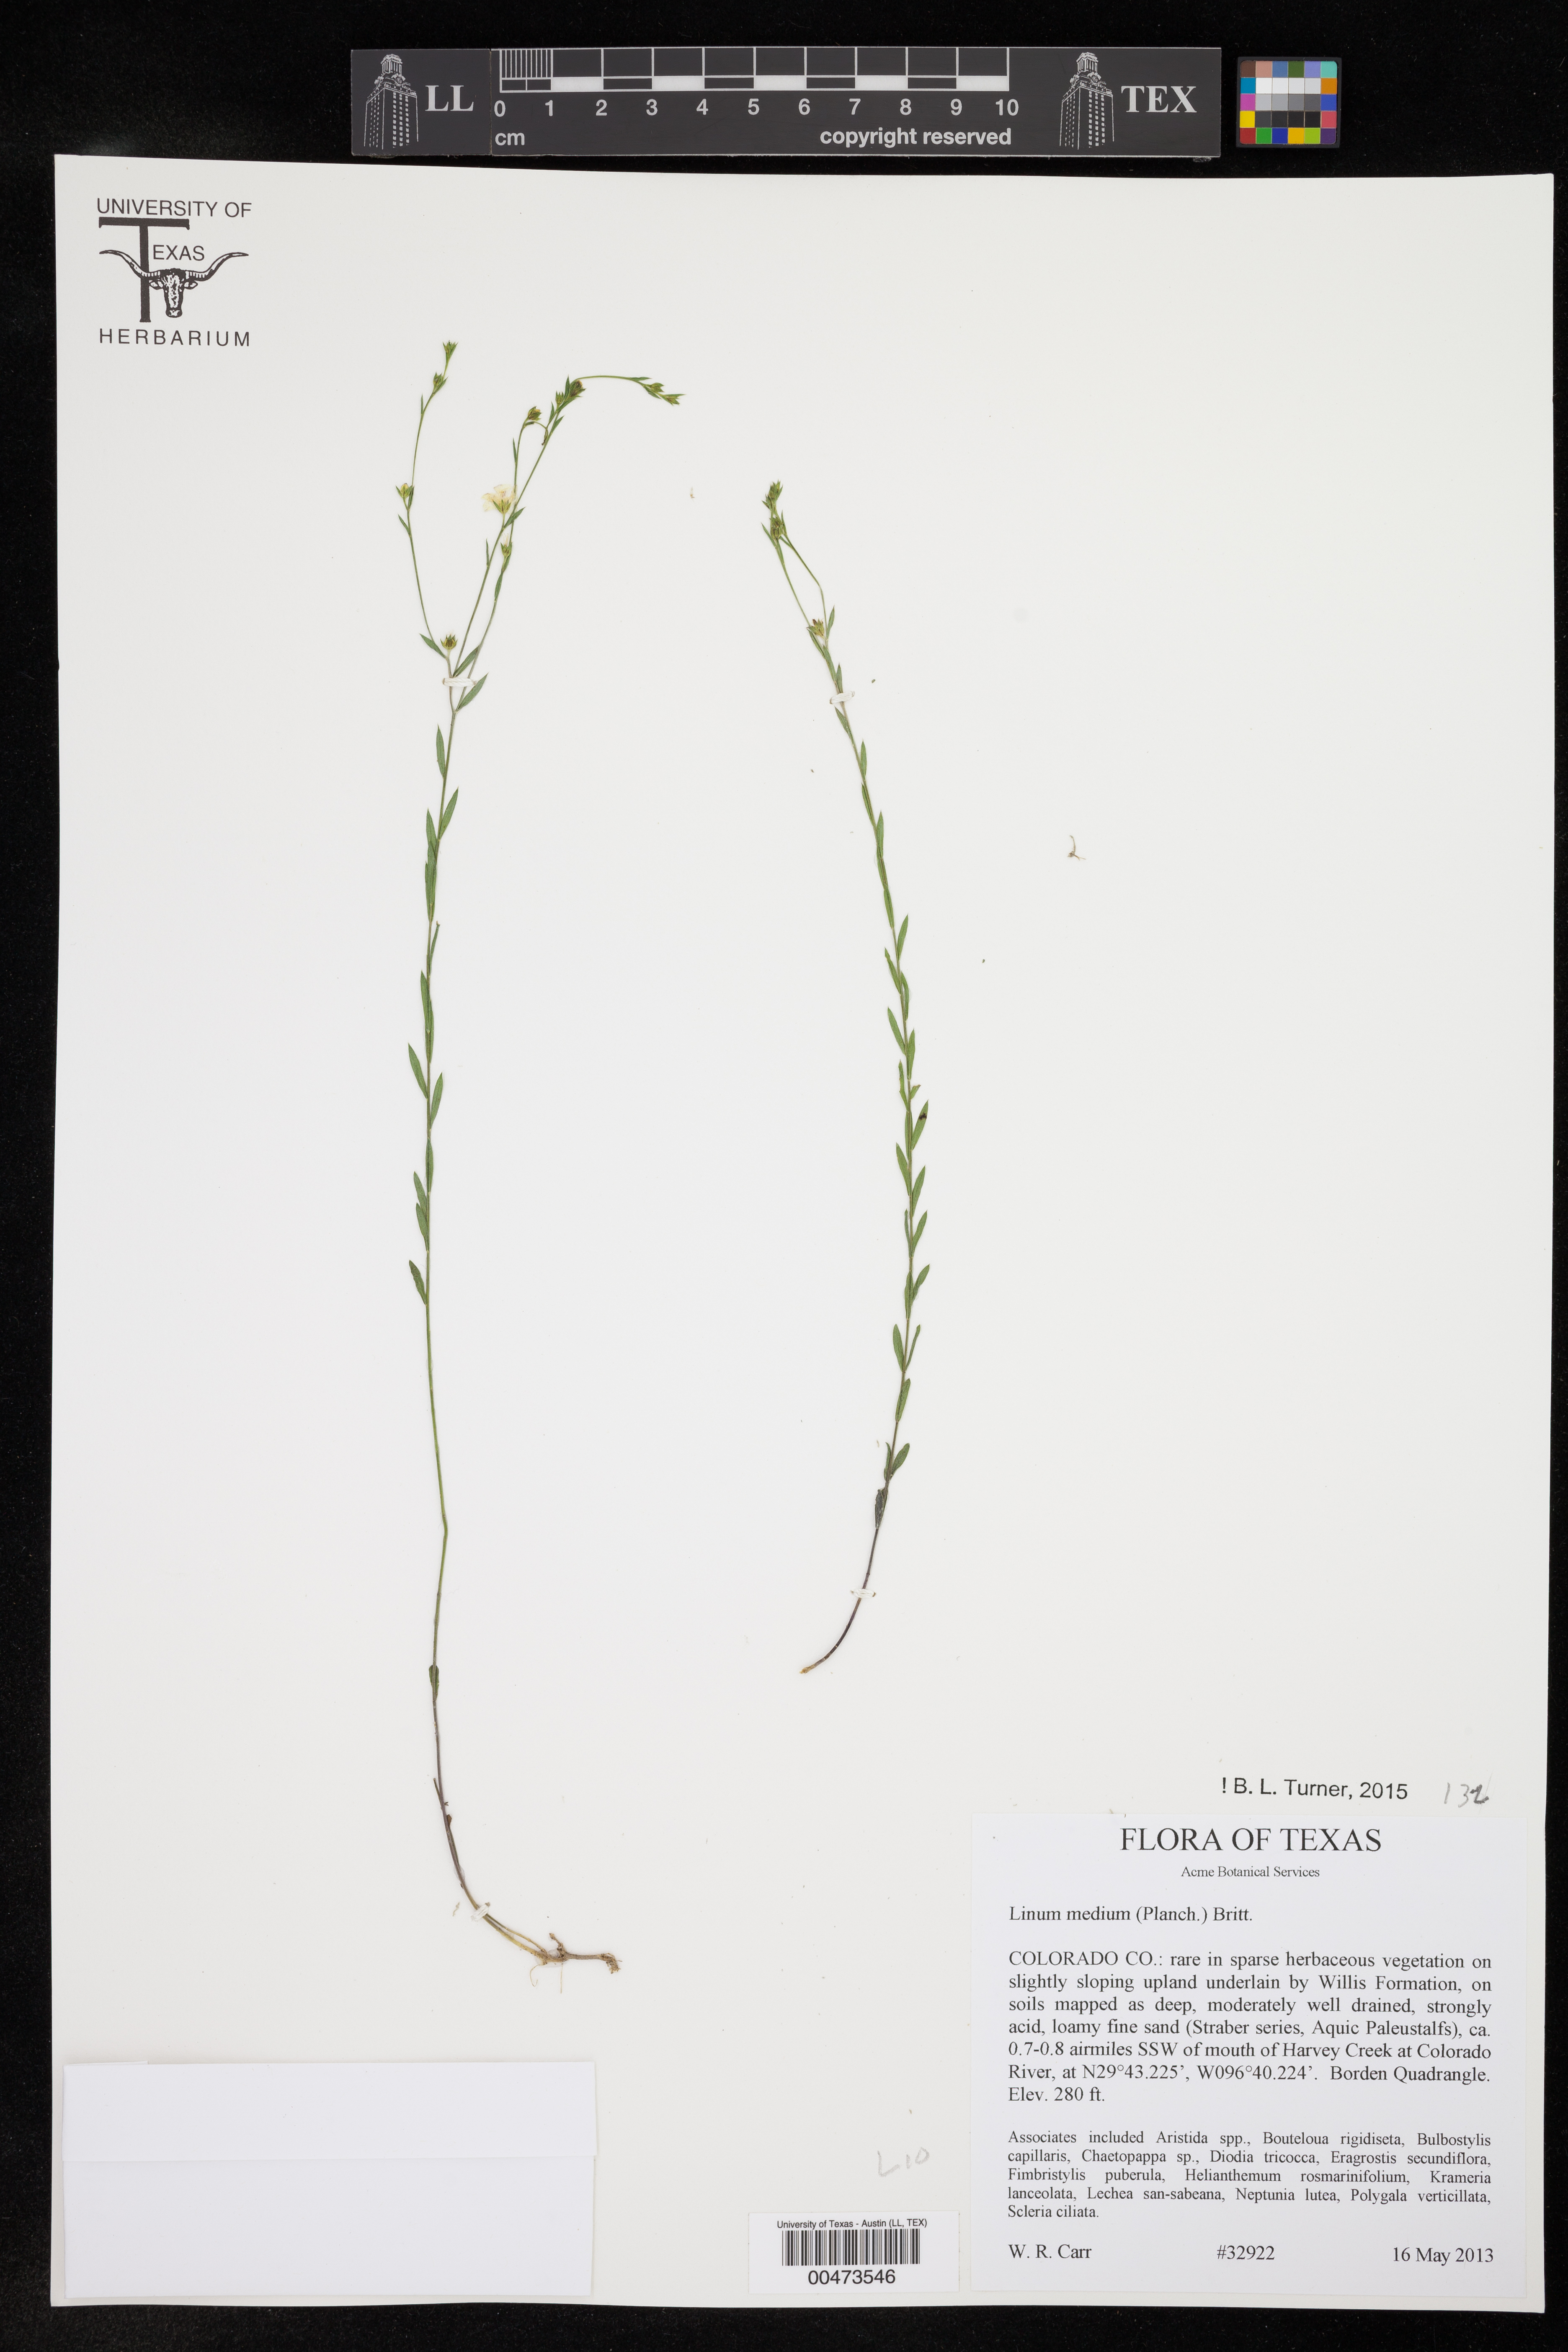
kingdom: Plantae
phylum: Tracheophyta
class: Magnoliopsida
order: Malpighiales
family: Linaceae
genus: Linum
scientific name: Linum medium
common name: Stiff yellow flax
